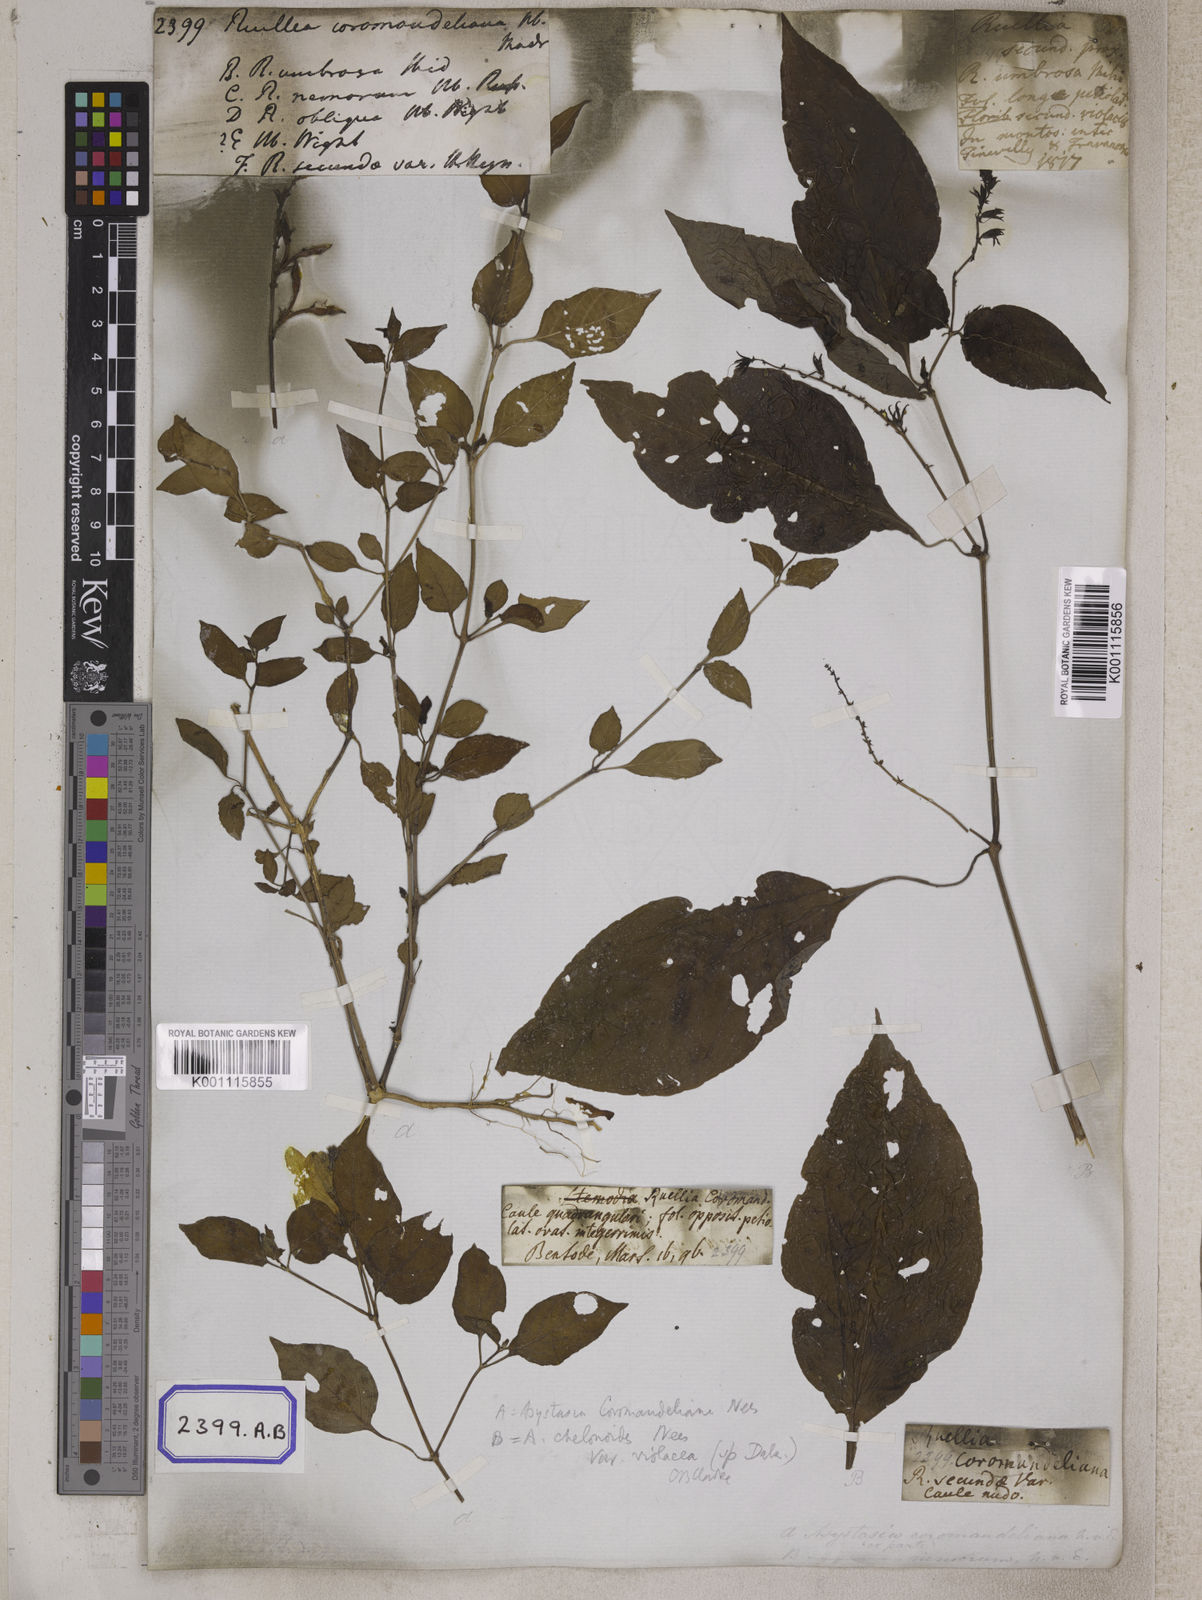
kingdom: Plantae
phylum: Tracheophyta
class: Magnoliopsida
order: Lamiales
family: Acanthaceae
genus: Asystasia
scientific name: Asystasia gangetica
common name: Chinese violet
